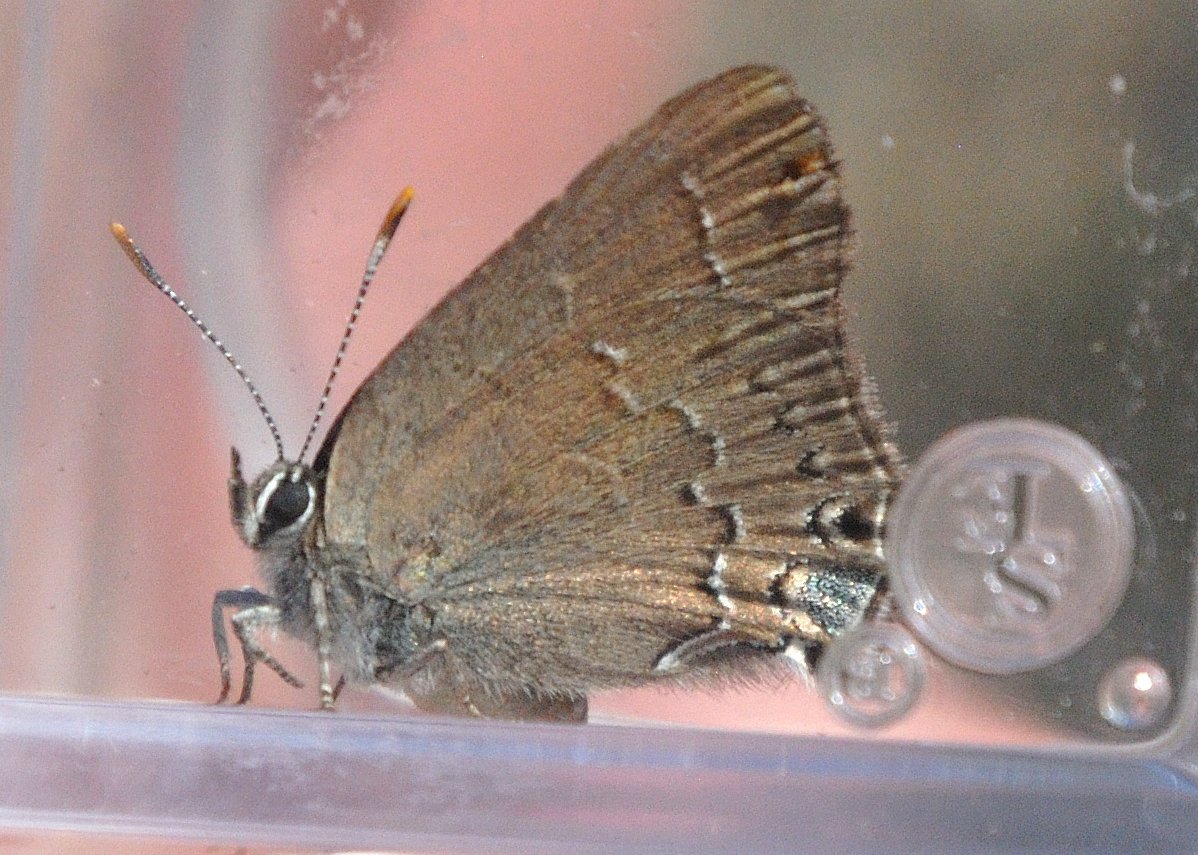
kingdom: Animalia
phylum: Arthropoda
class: Insecta
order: Lepidoptera
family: Lycaenidae
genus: Strymon
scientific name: Strymon saepium
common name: Hedgerow Hairstreak
